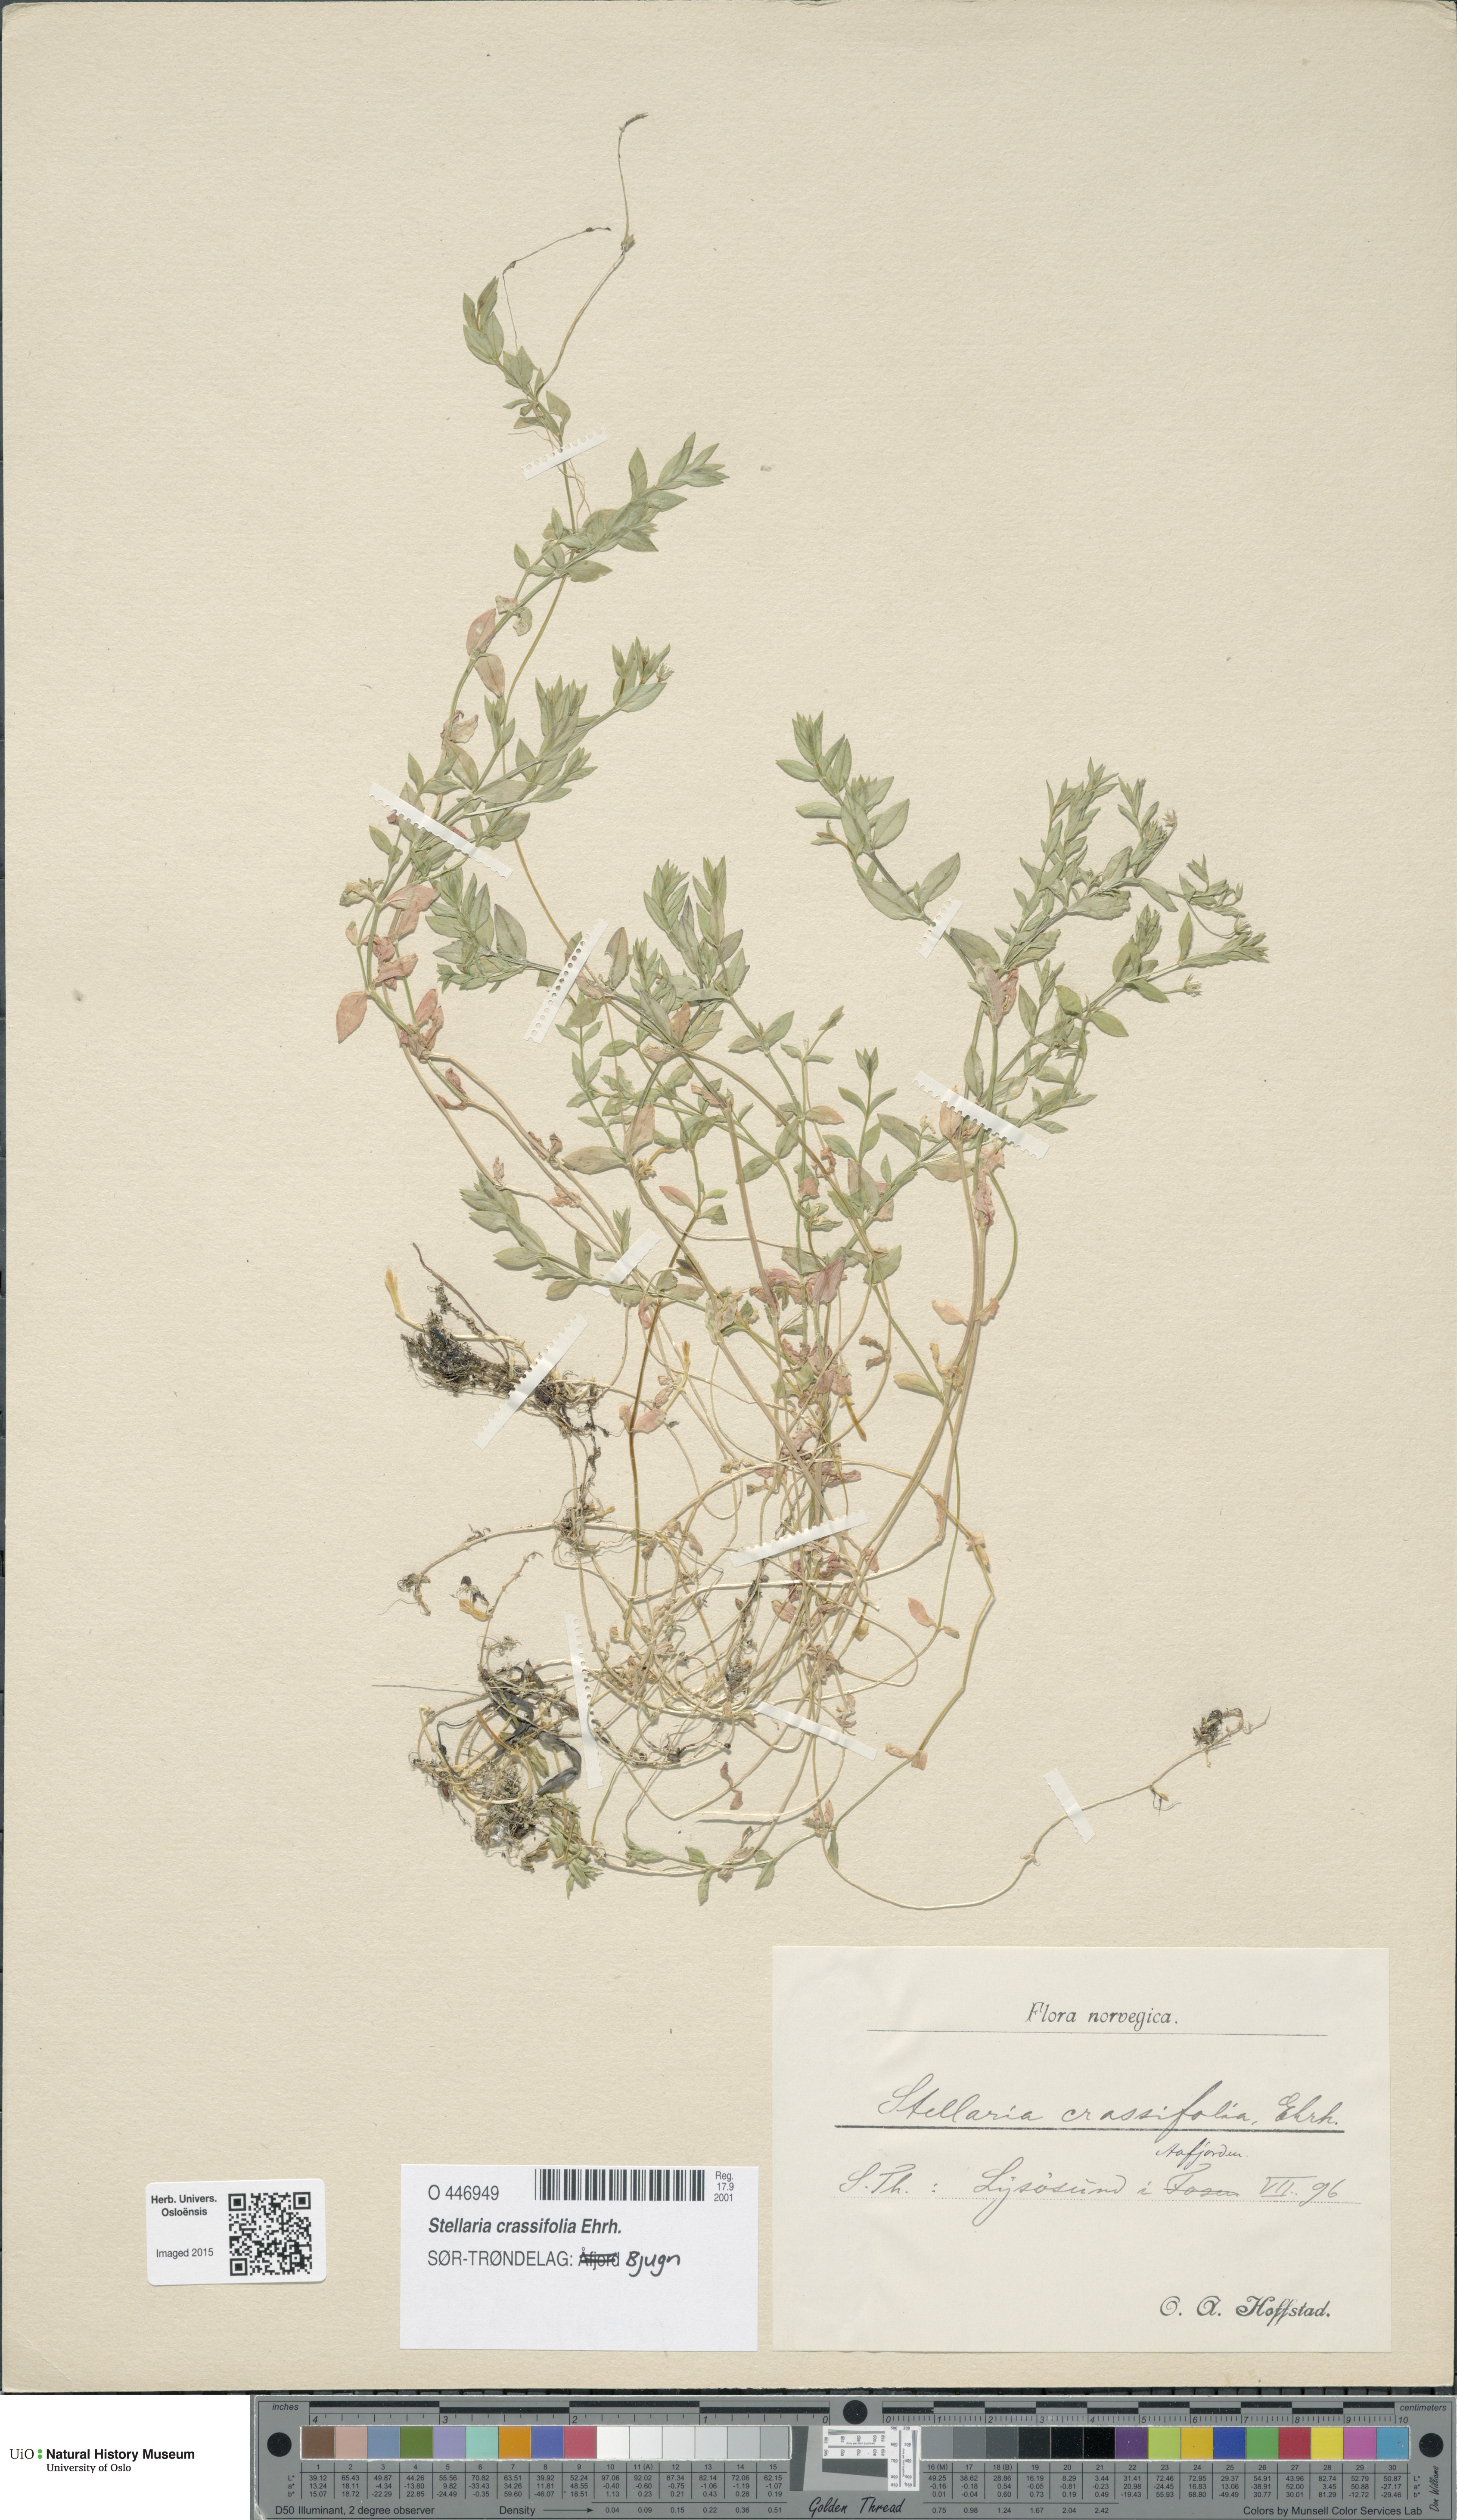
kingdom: Plantae
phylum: Tracheophyta
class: Magnoliopsida
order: Caryophyllales
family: Caryophyllaceae
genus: Stellaria
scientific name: Stellaria crassifolia
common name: Fleshy starwort
